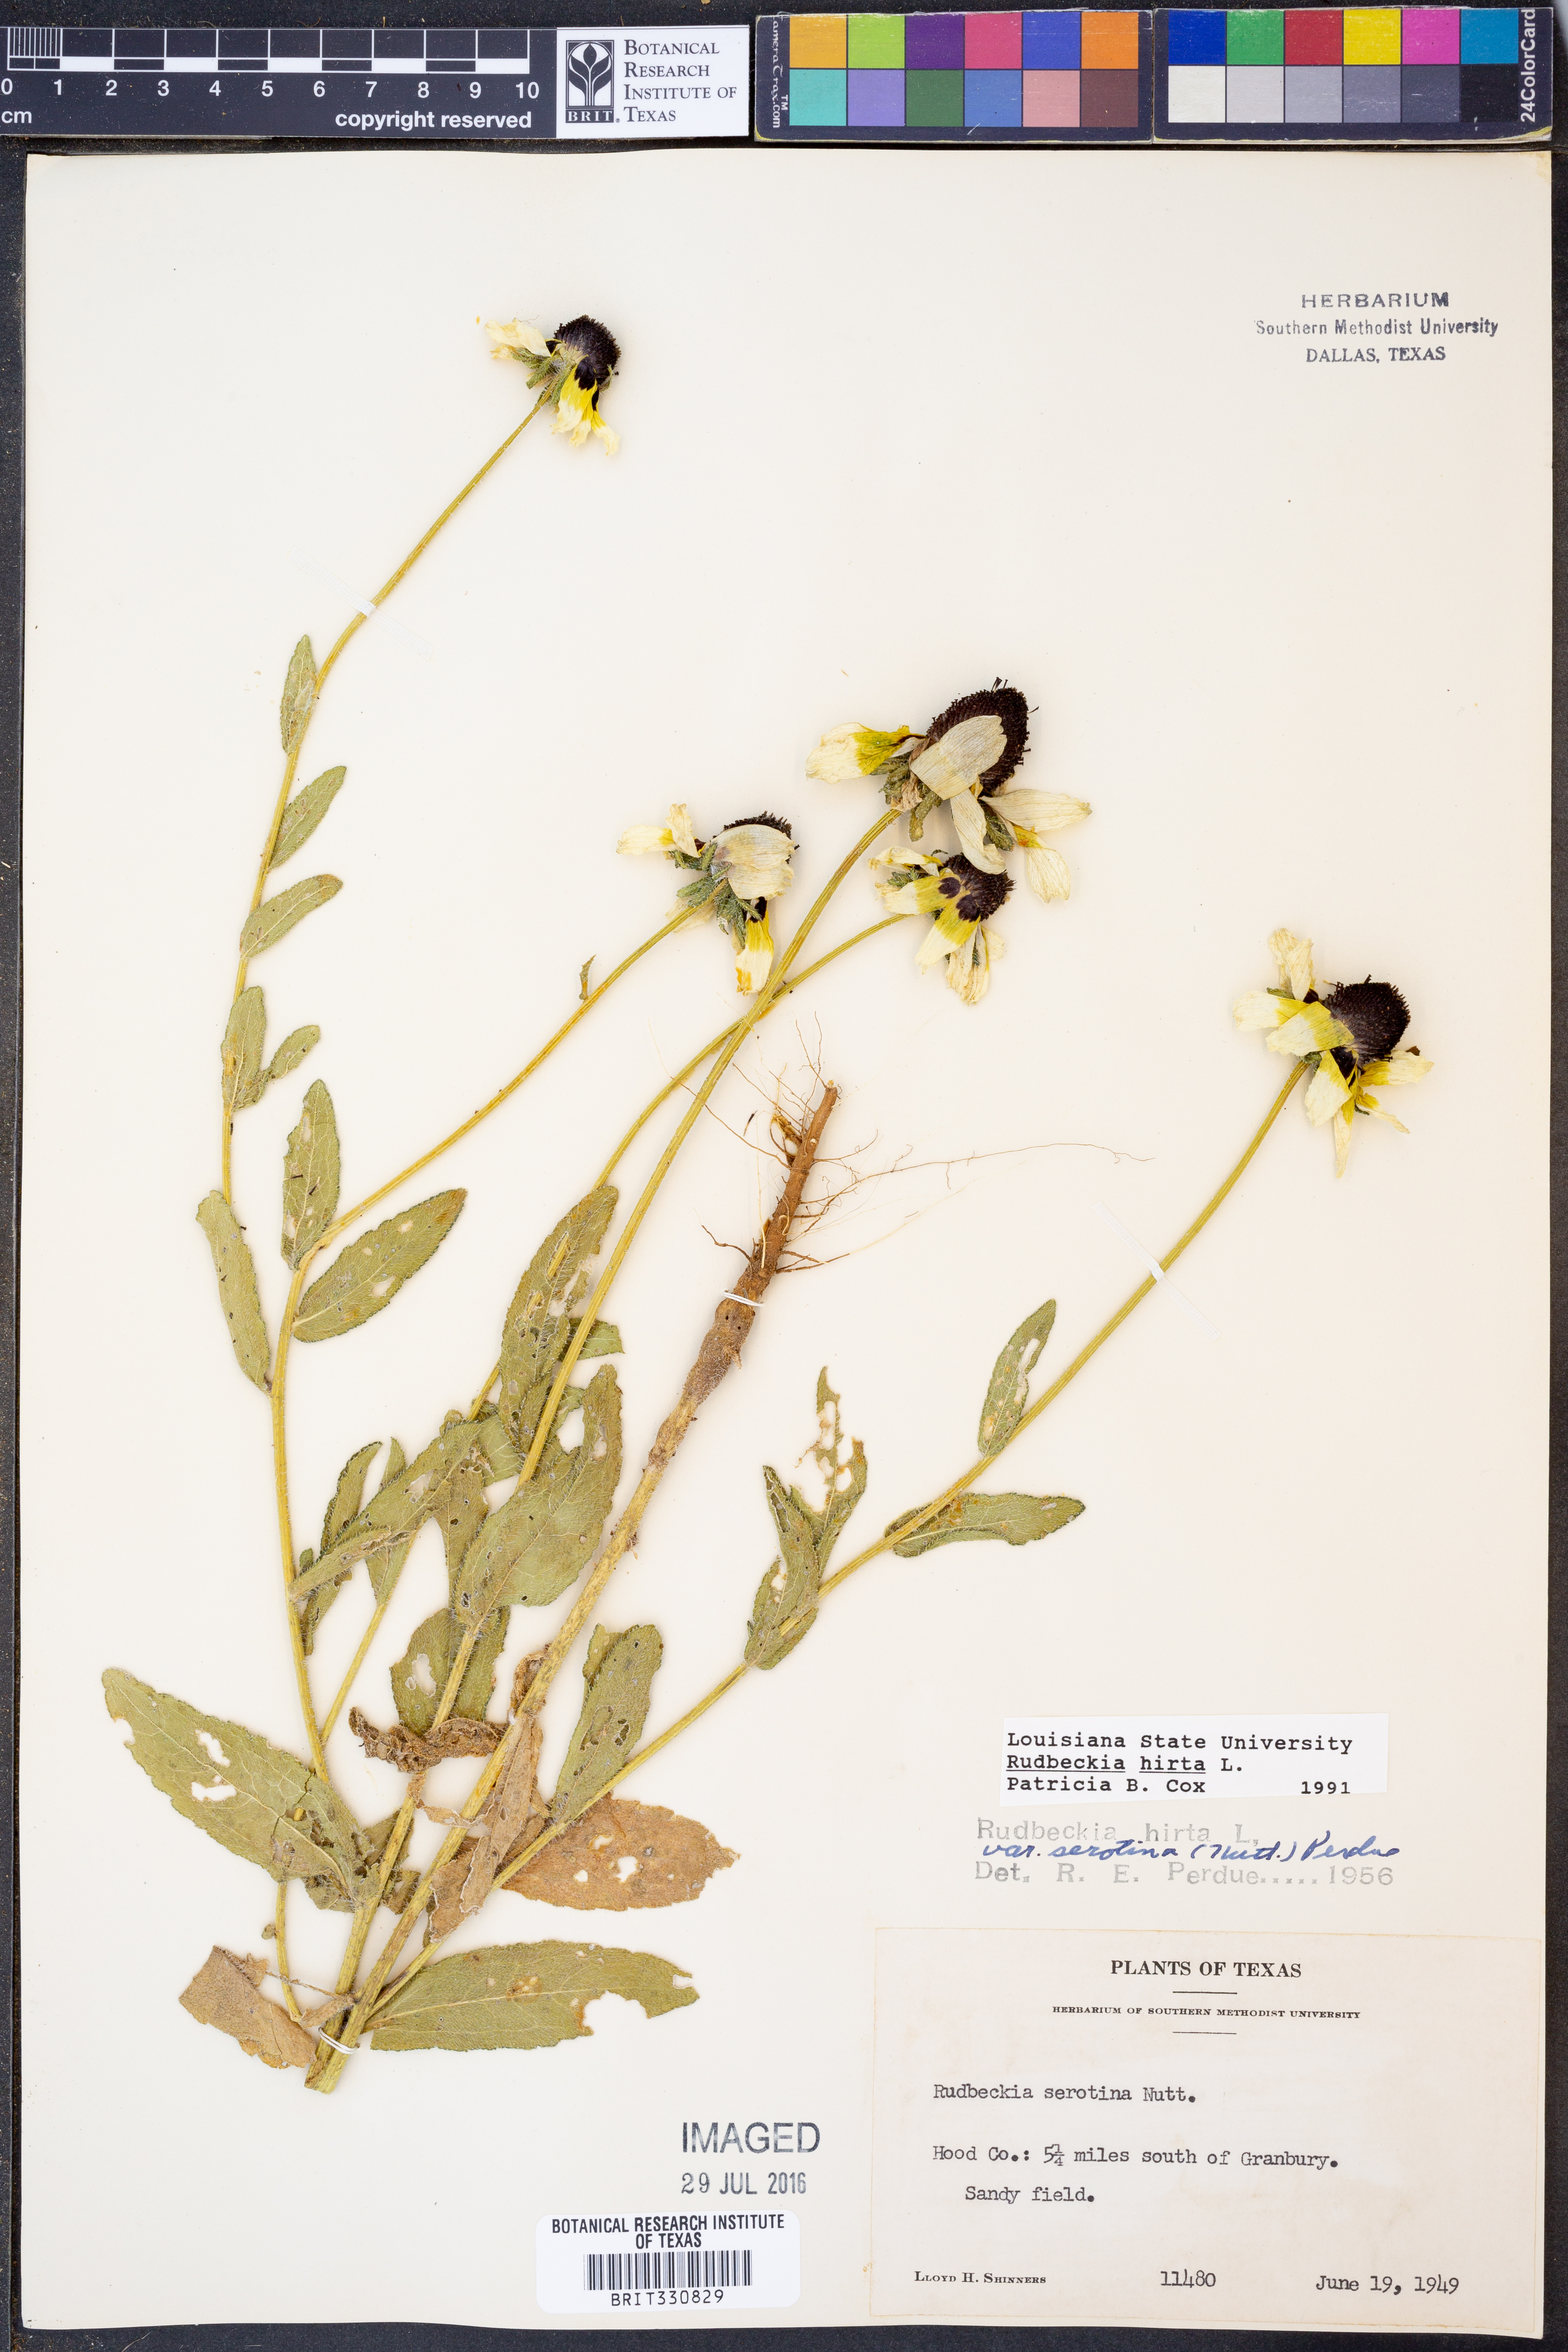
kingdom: Plantae
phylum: Tracheophyta
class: Magnoliopsida
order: Asterales
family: Asteraceae
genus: Rudbeckia
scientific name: Rudbeckia hirta
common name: Black-eyed-susan
